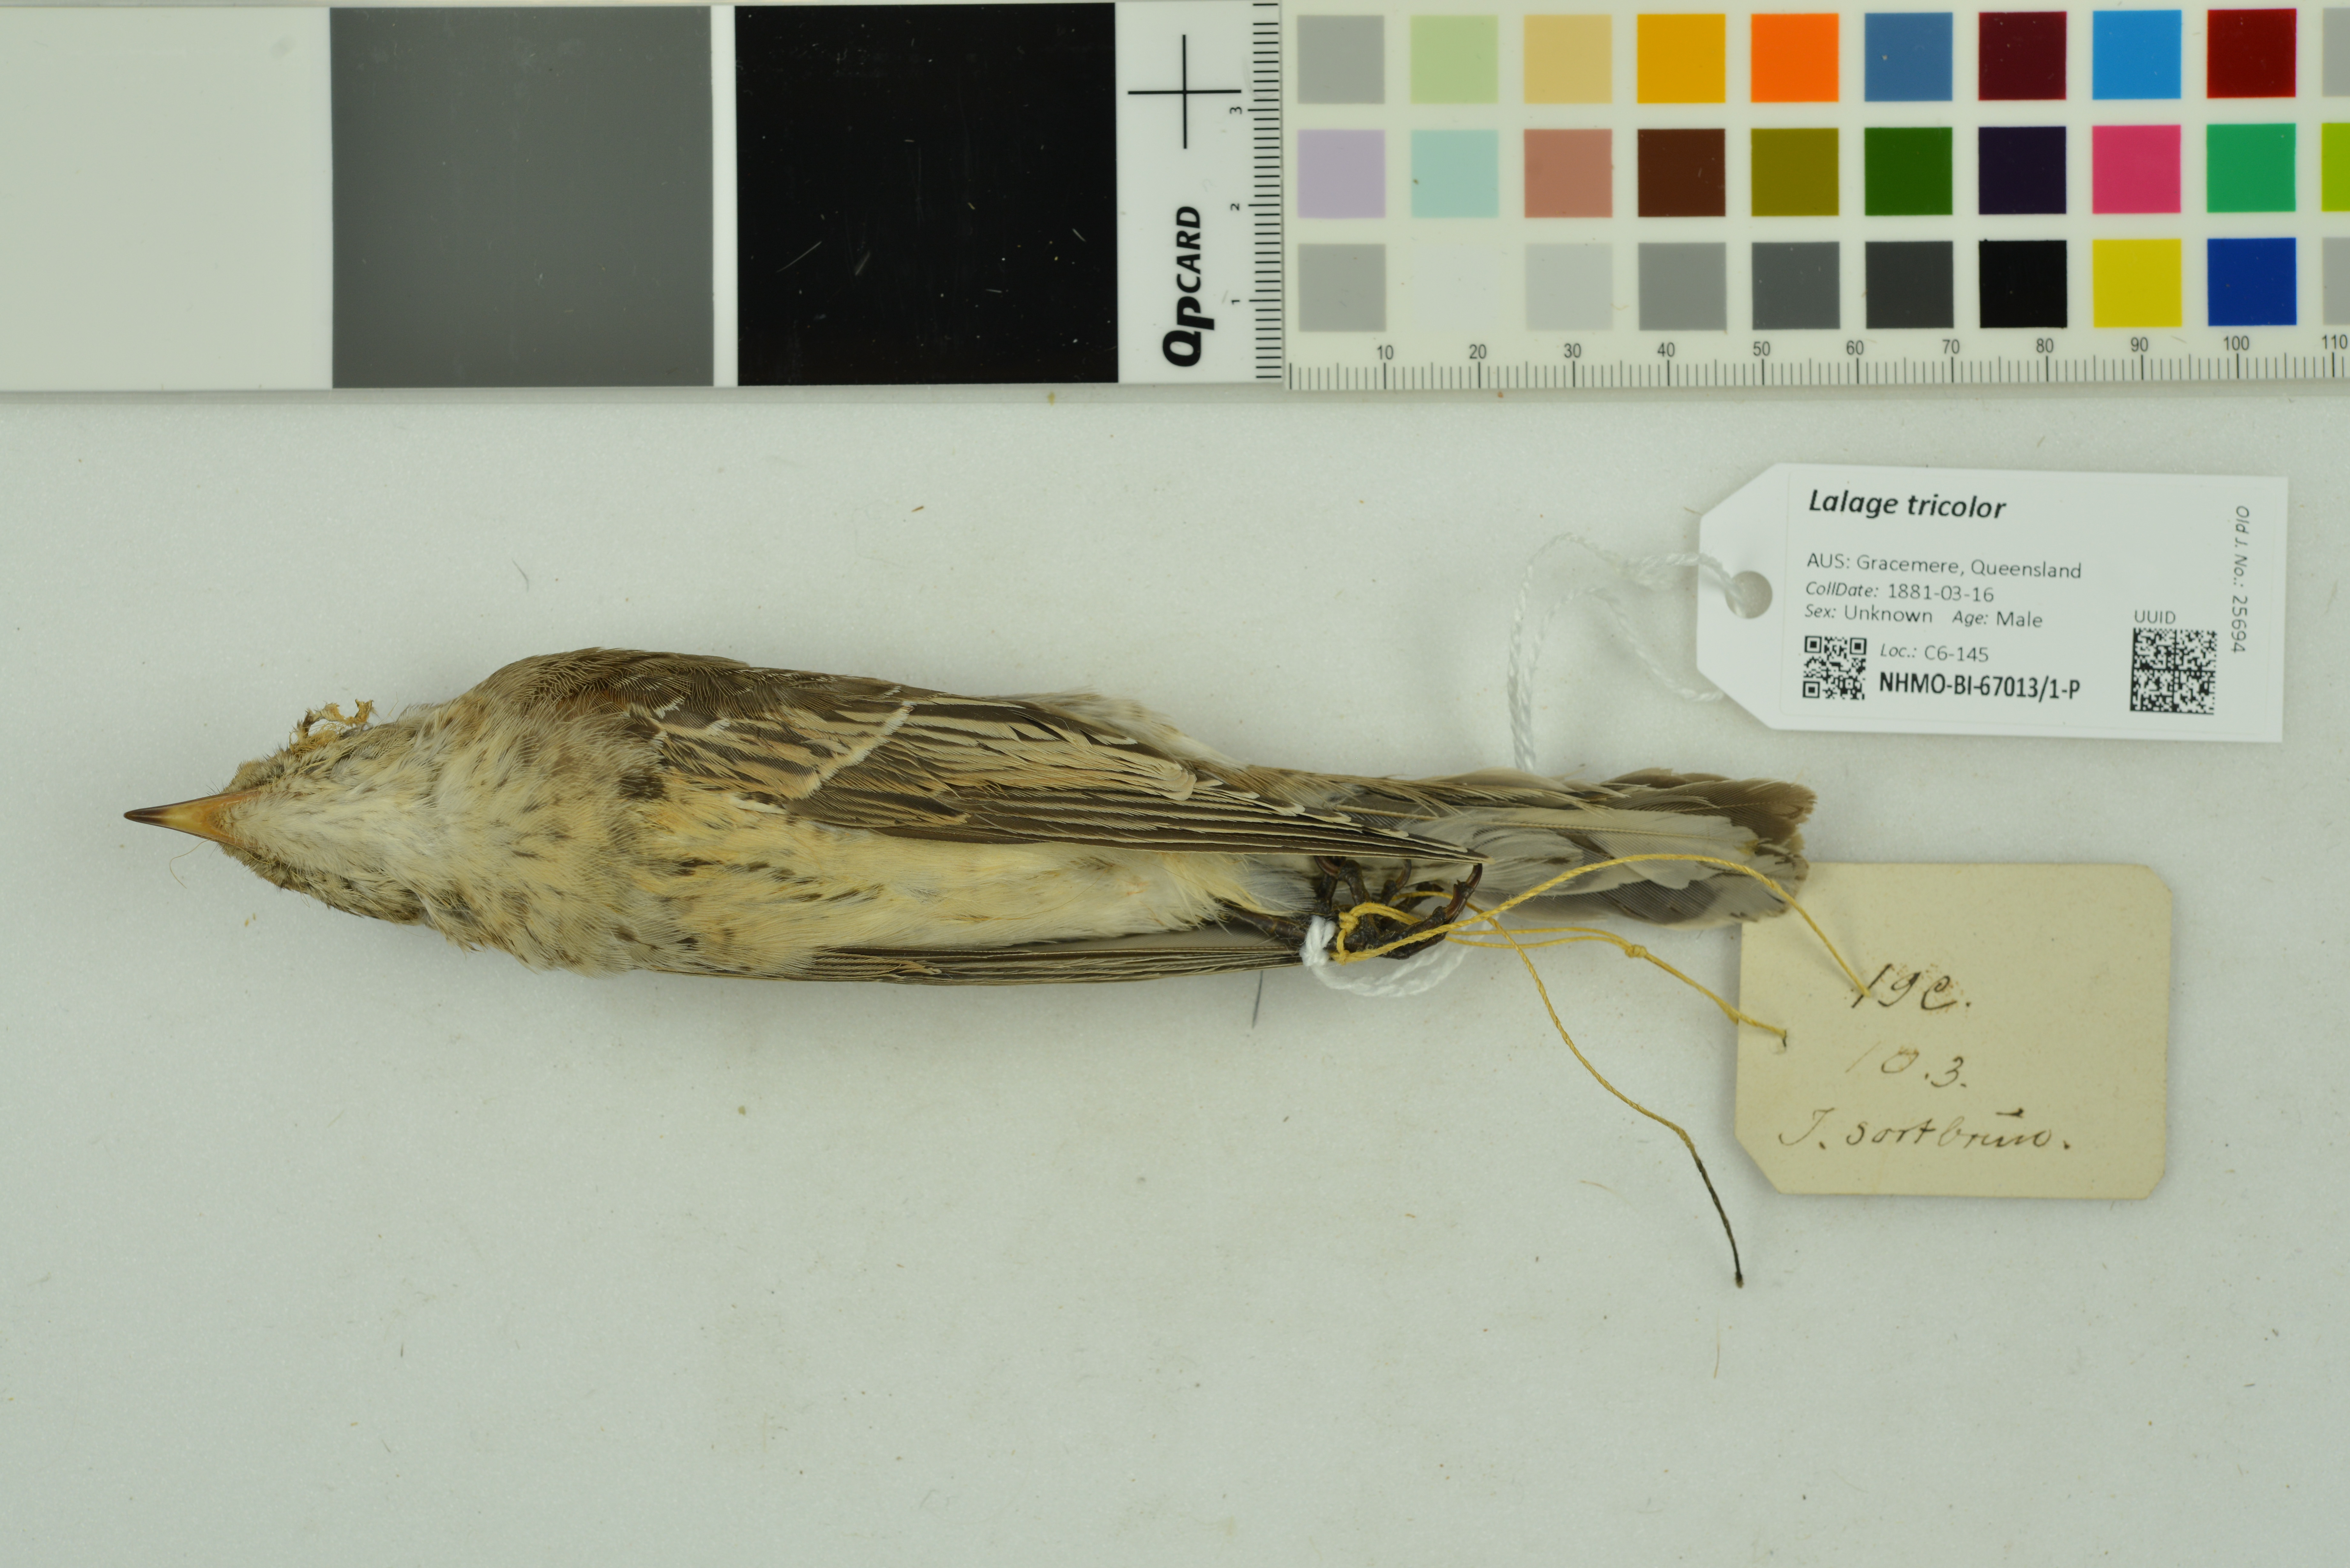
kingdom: Animalia
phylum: Chordata
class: Aves
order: Passeriformes
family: Campephagidae
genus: Lalage
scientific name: Lalage tricolor
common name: White-winged triller
